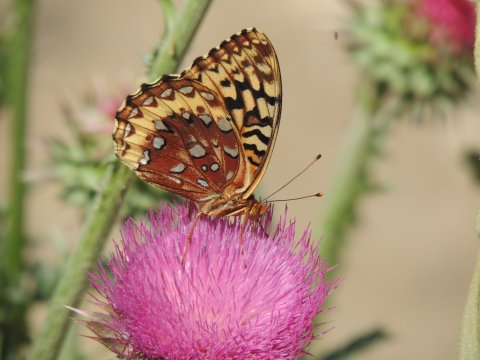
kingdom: Animalia
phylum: Arthropoda
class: Insecta
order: Lepidoptera
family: Nymphalidae
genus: Speyeria
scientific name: Speyeria cybele
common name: Great Spangled Fritillary
